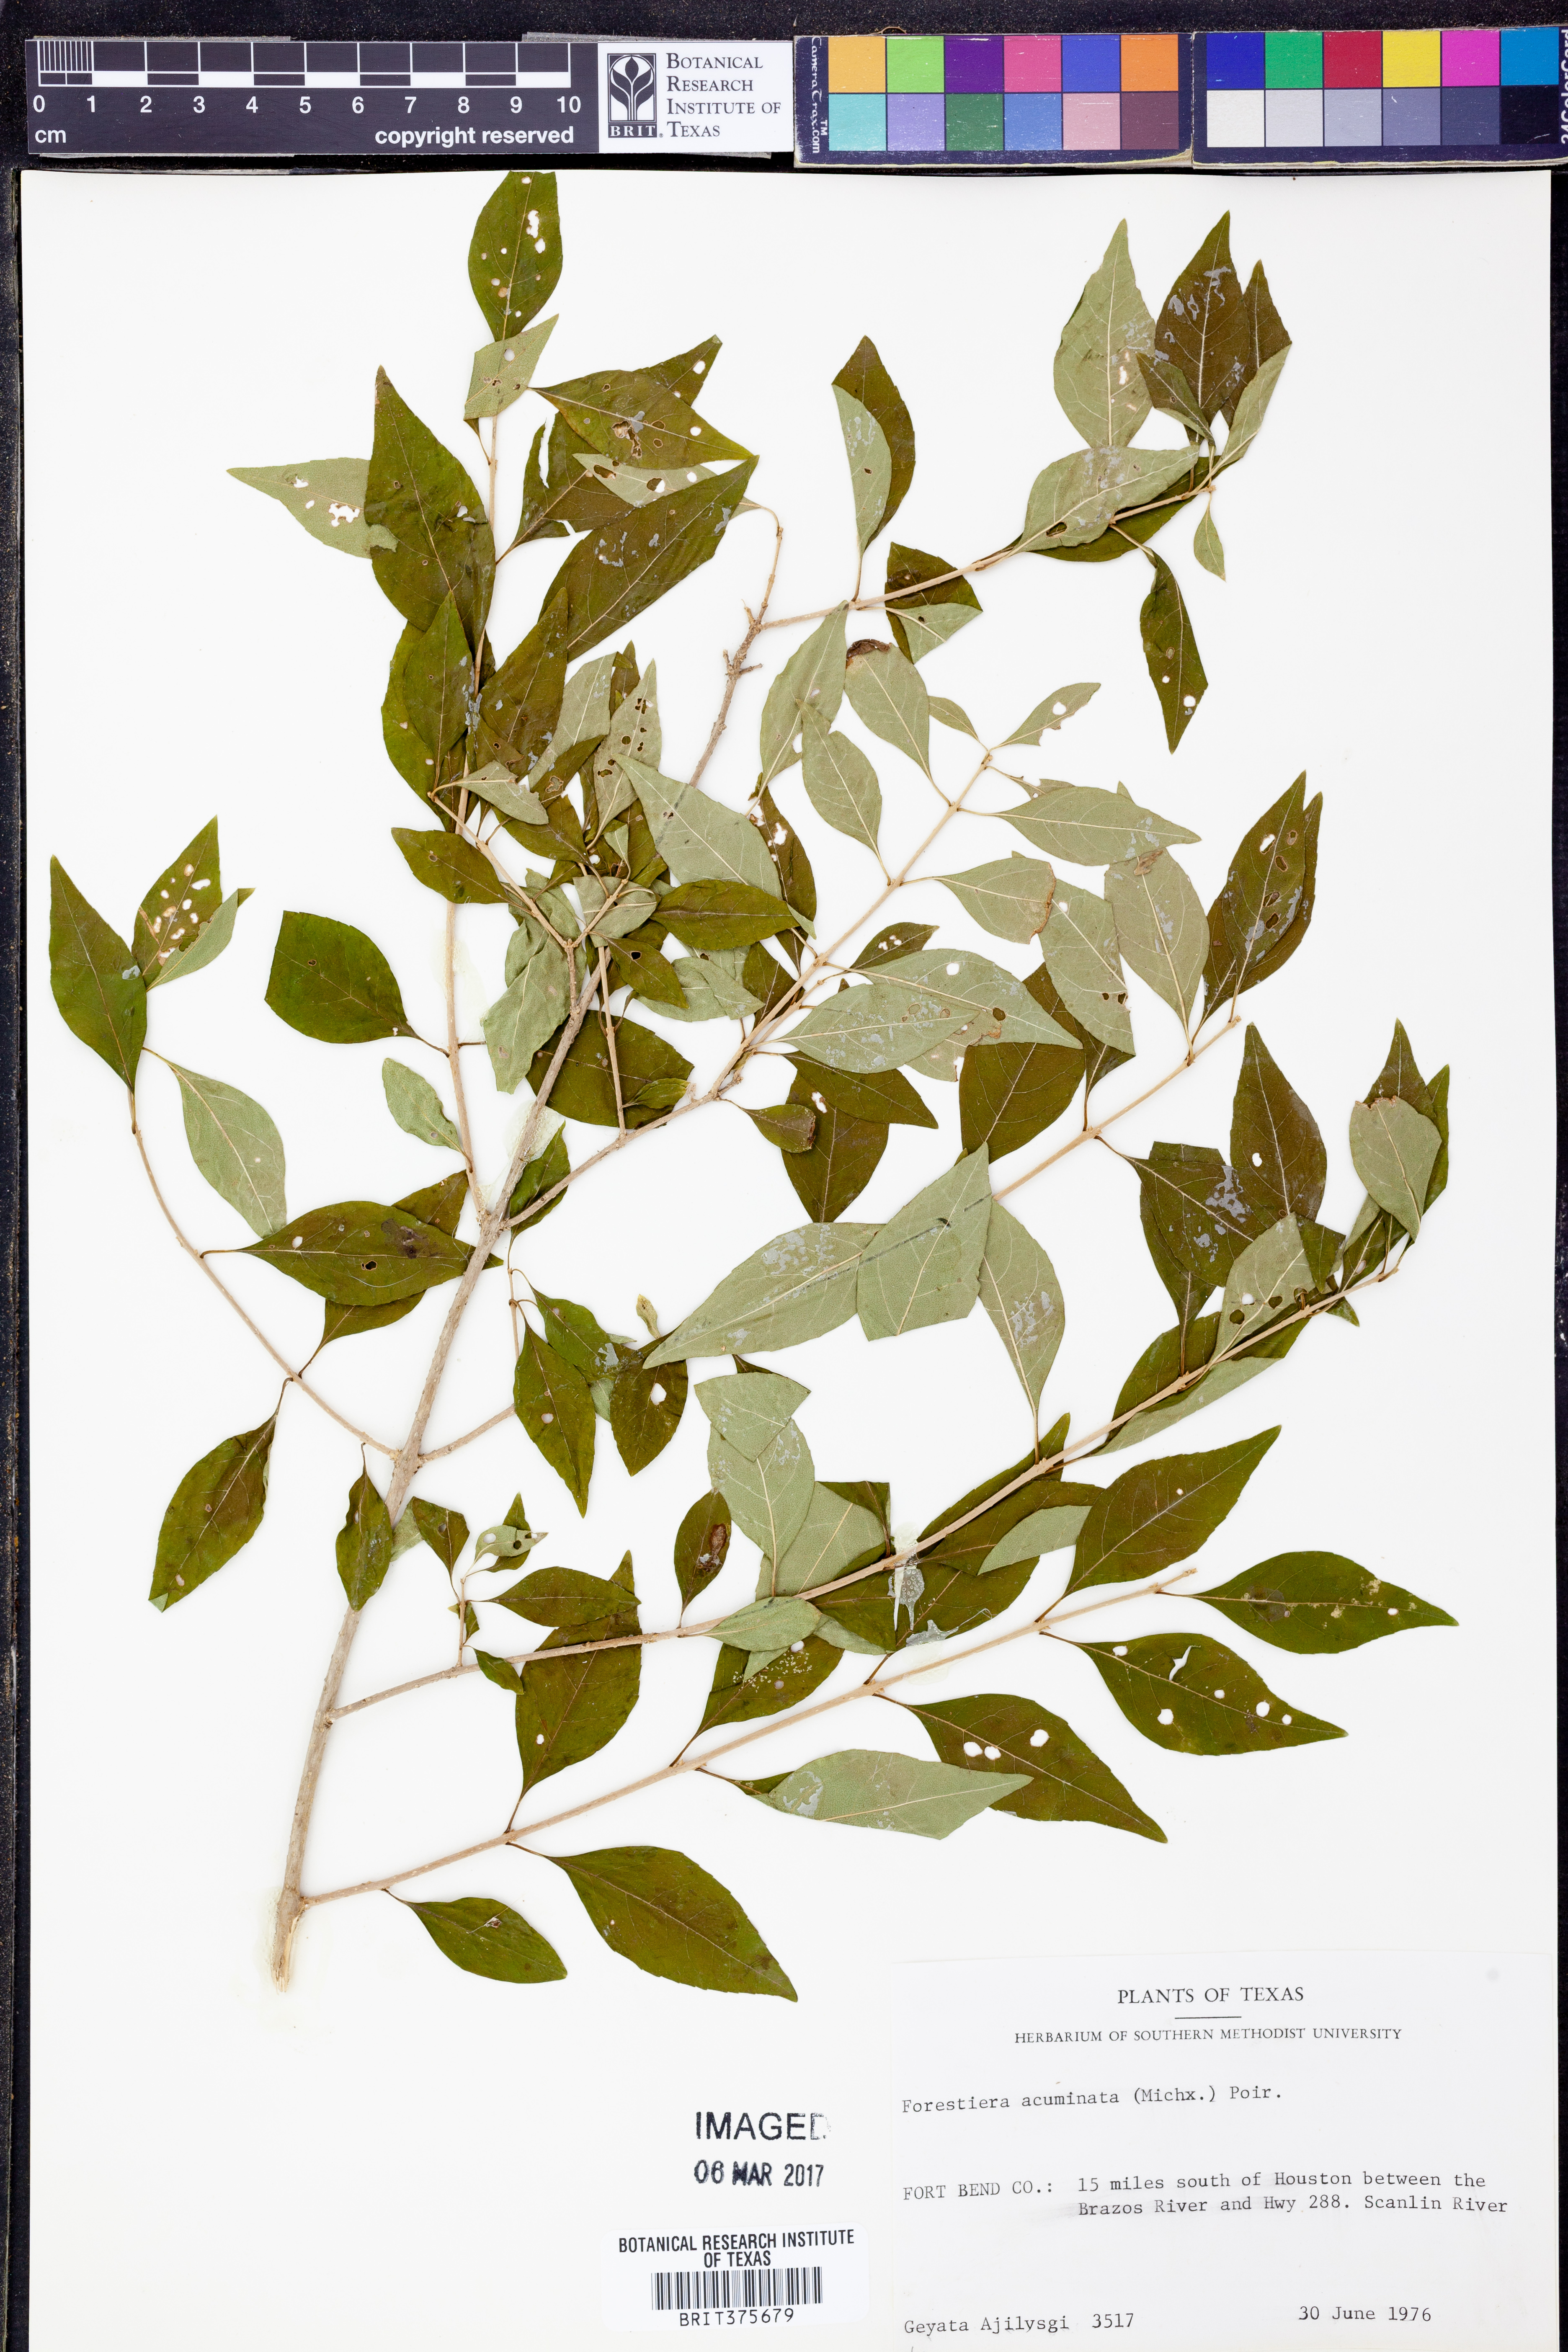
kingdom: Plantae
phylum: Tracheophyta
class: Magnoliopsida
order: Lamiales
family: Oleaceae
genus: Forestiera
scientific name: Forestiera acuminata
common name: Swamp-privet
